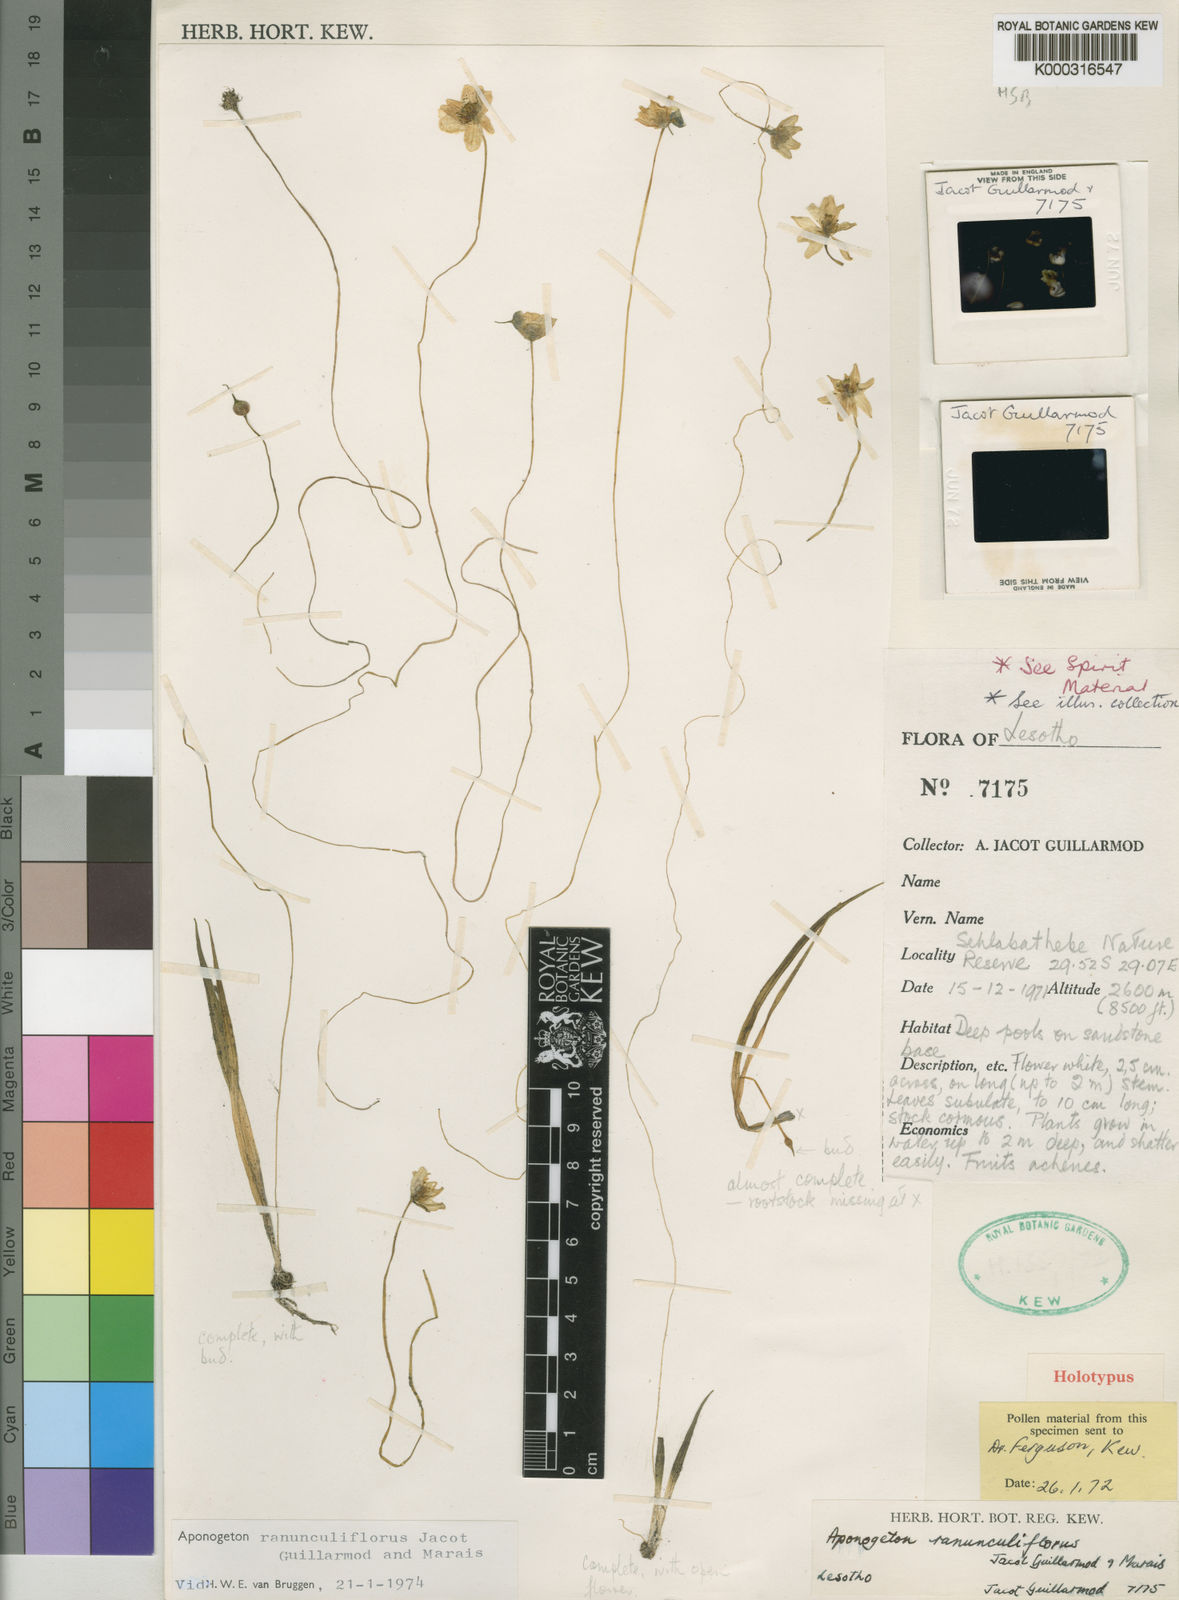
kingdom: Plantae
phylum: Tracheophyta
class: Liliopsida
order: Alismatales
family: Aponogetonaceae
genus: Aponogeton
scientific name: Aponogeton ranunculiflorus
